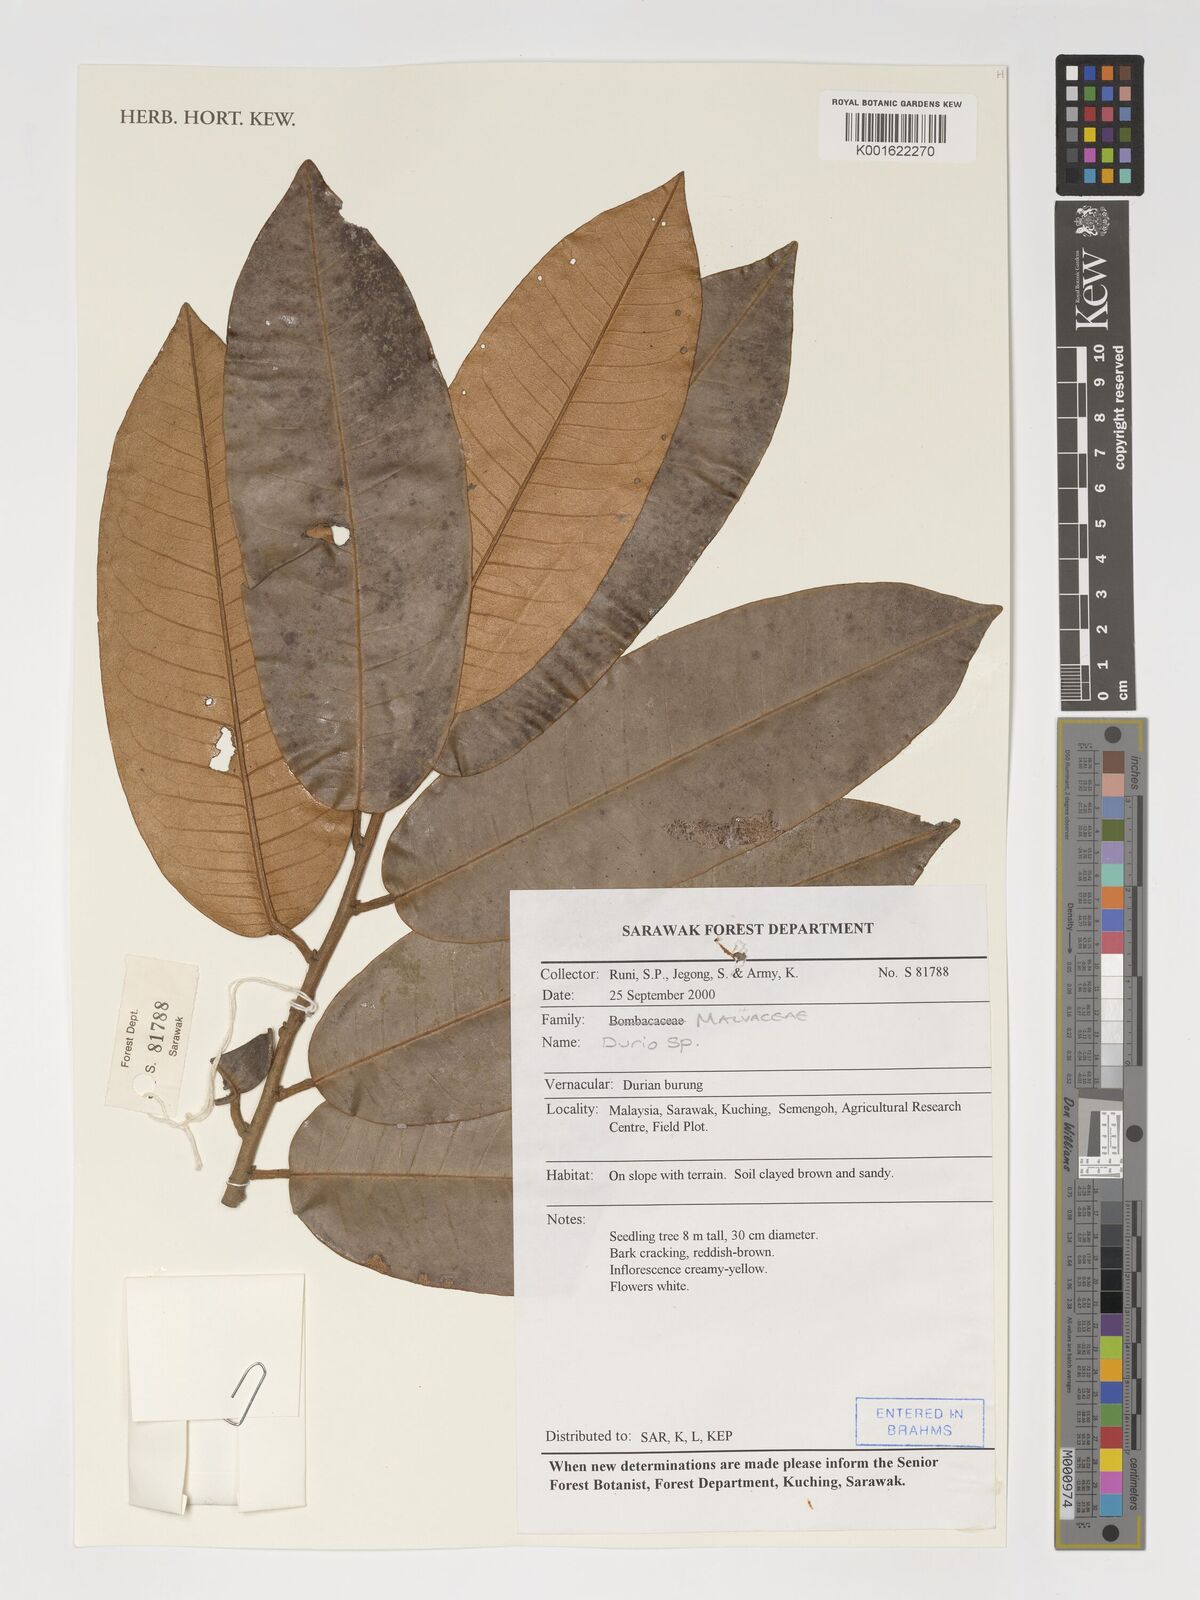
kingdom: Plantae
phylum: Tracheophyta
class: Magnoliopsida
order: Malvales
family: Malvaceae
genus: Durio
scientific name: Durio
